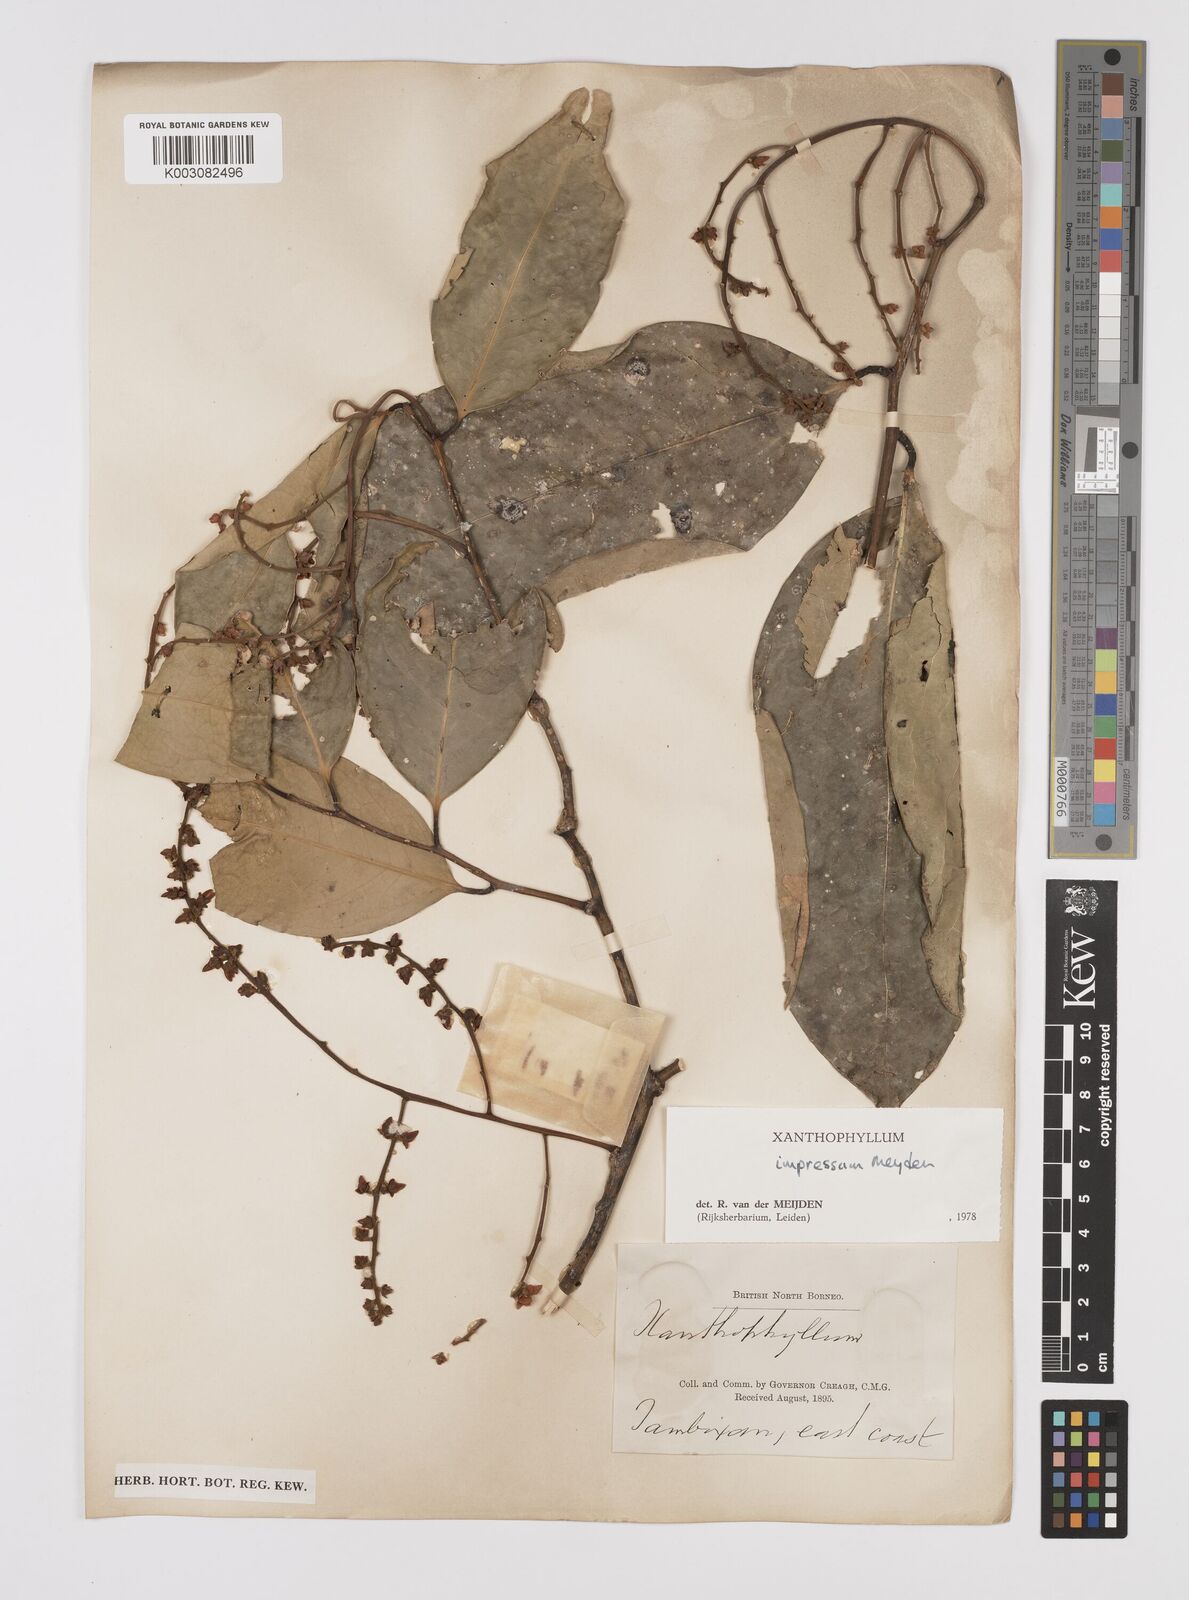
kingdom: Plantae
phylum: Tracheophyta
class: Magnoliopsida
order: Fabales
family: Polygalaceae
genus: Xanthophyllum
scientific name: Xanthophyllum impressum
